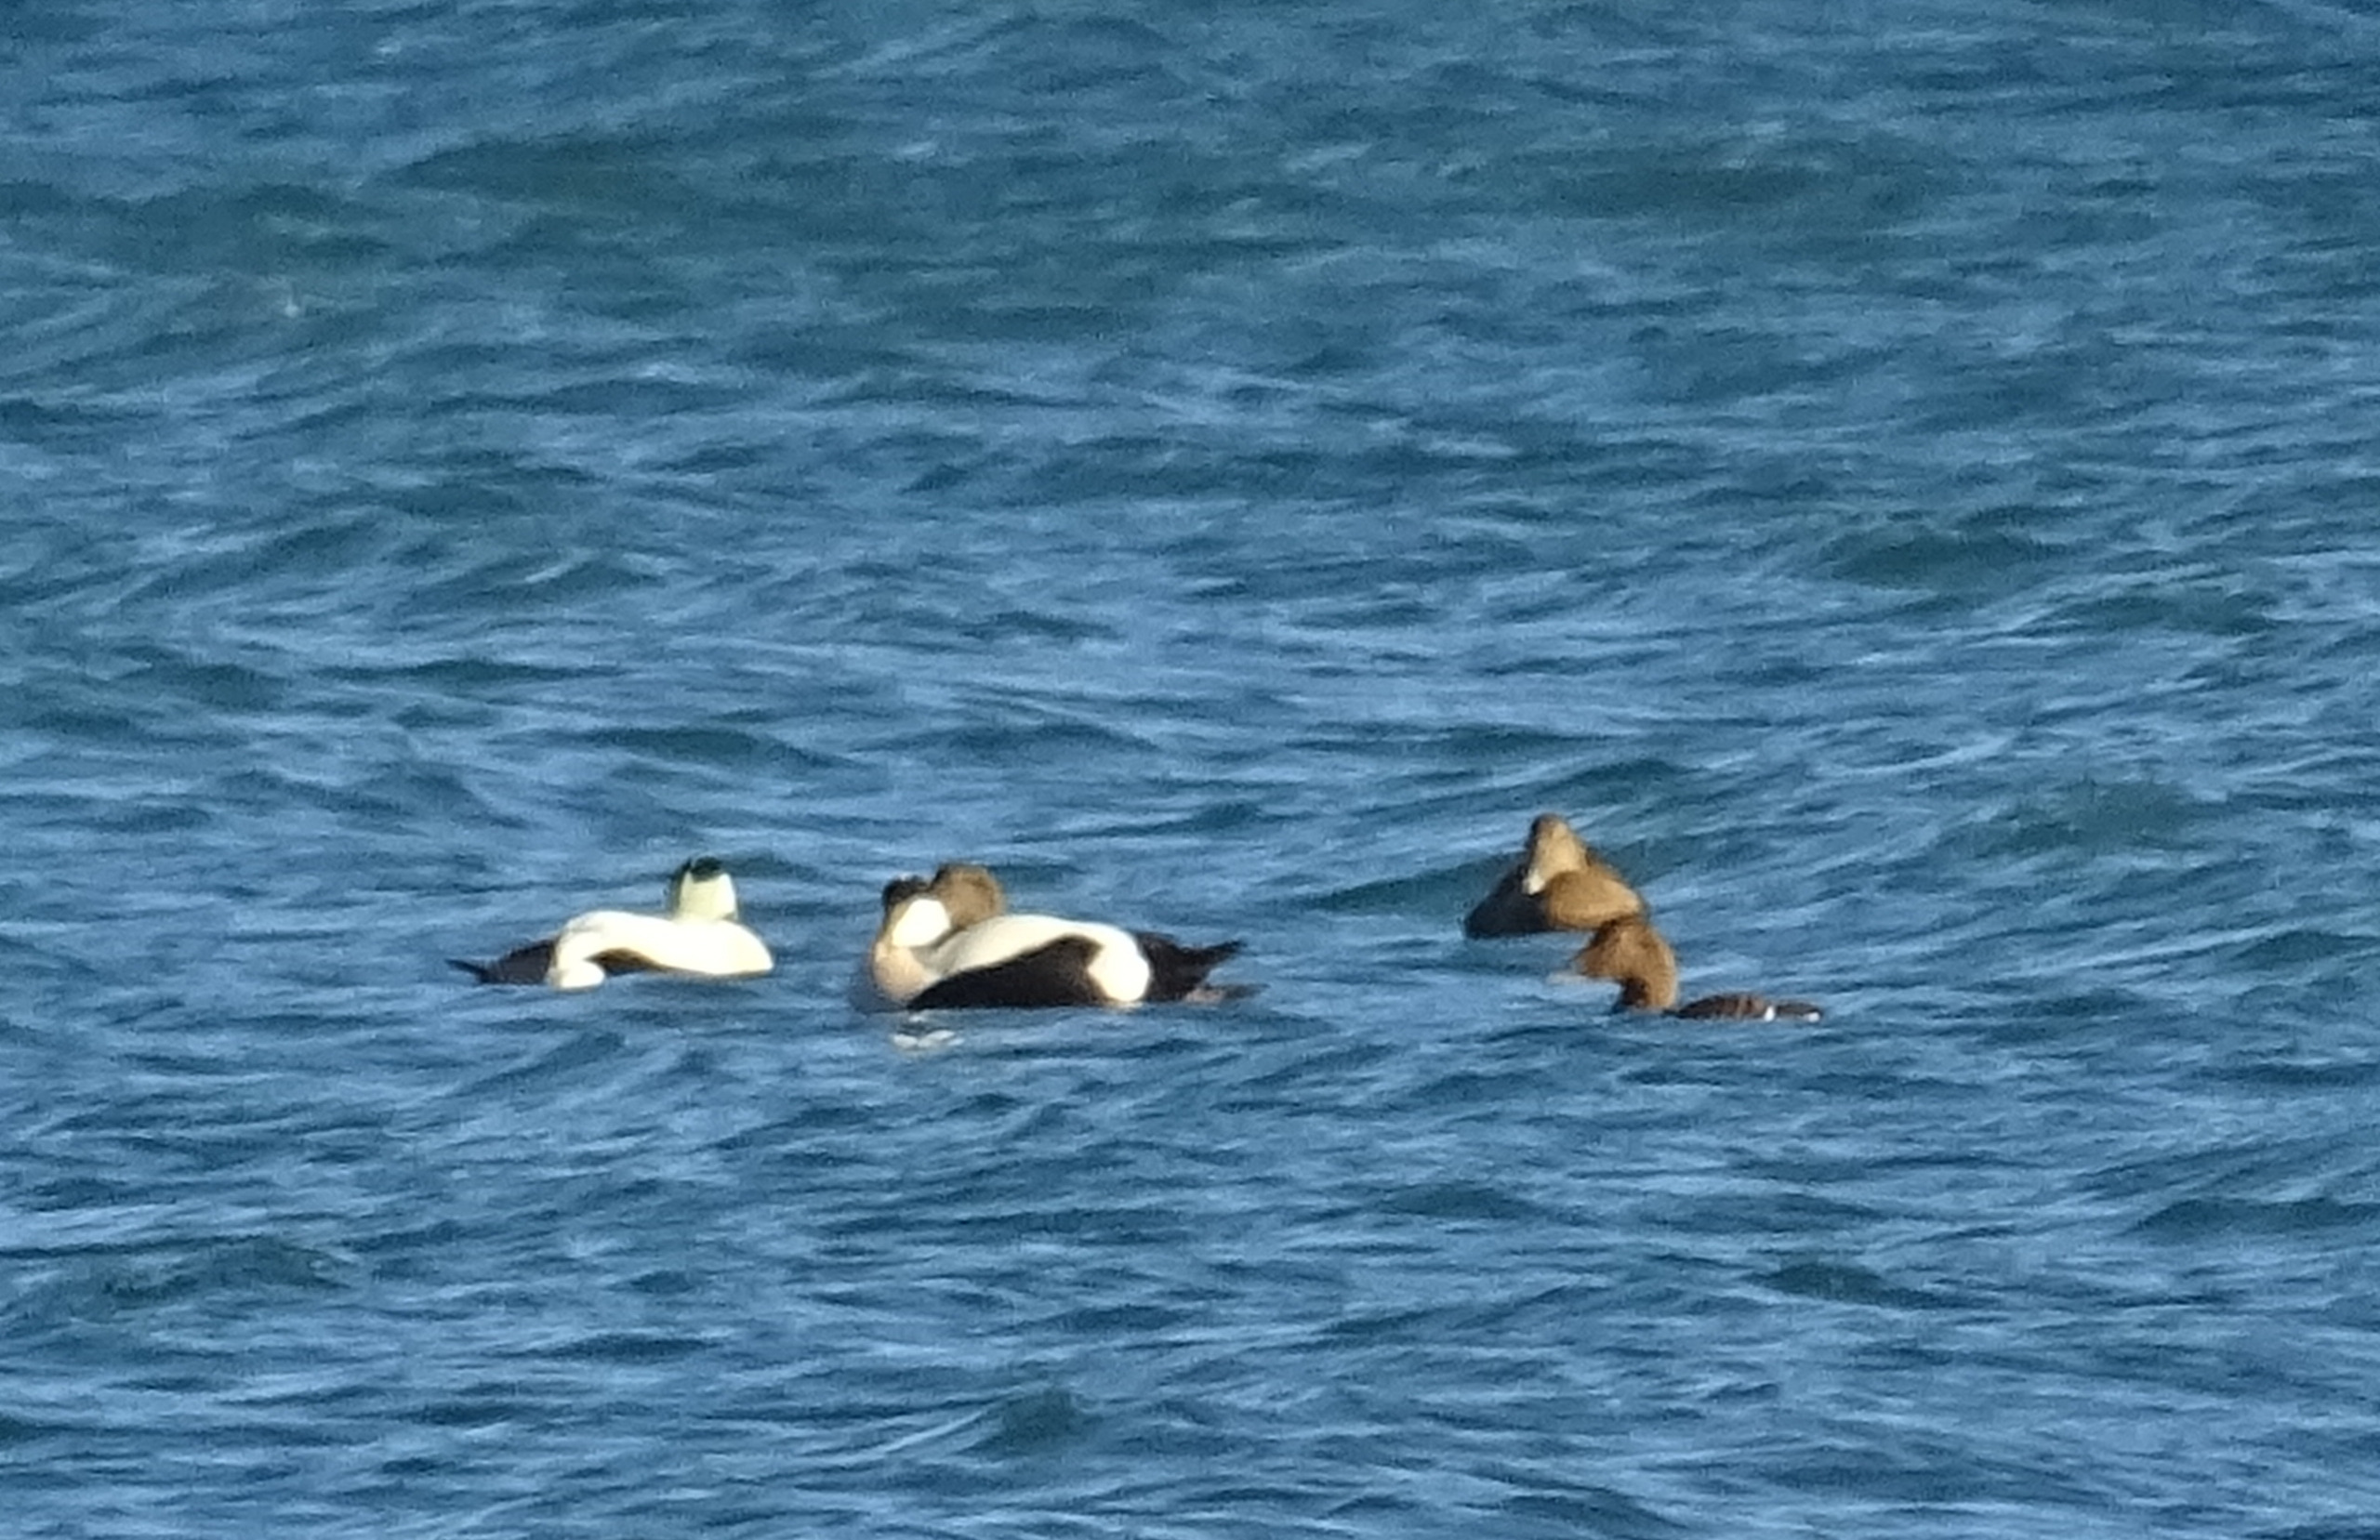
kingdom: Animalia
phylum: Chordata
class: Aves
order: Anseriformes
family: Anatidae
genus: Somateria
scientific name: Somateria mollissima
